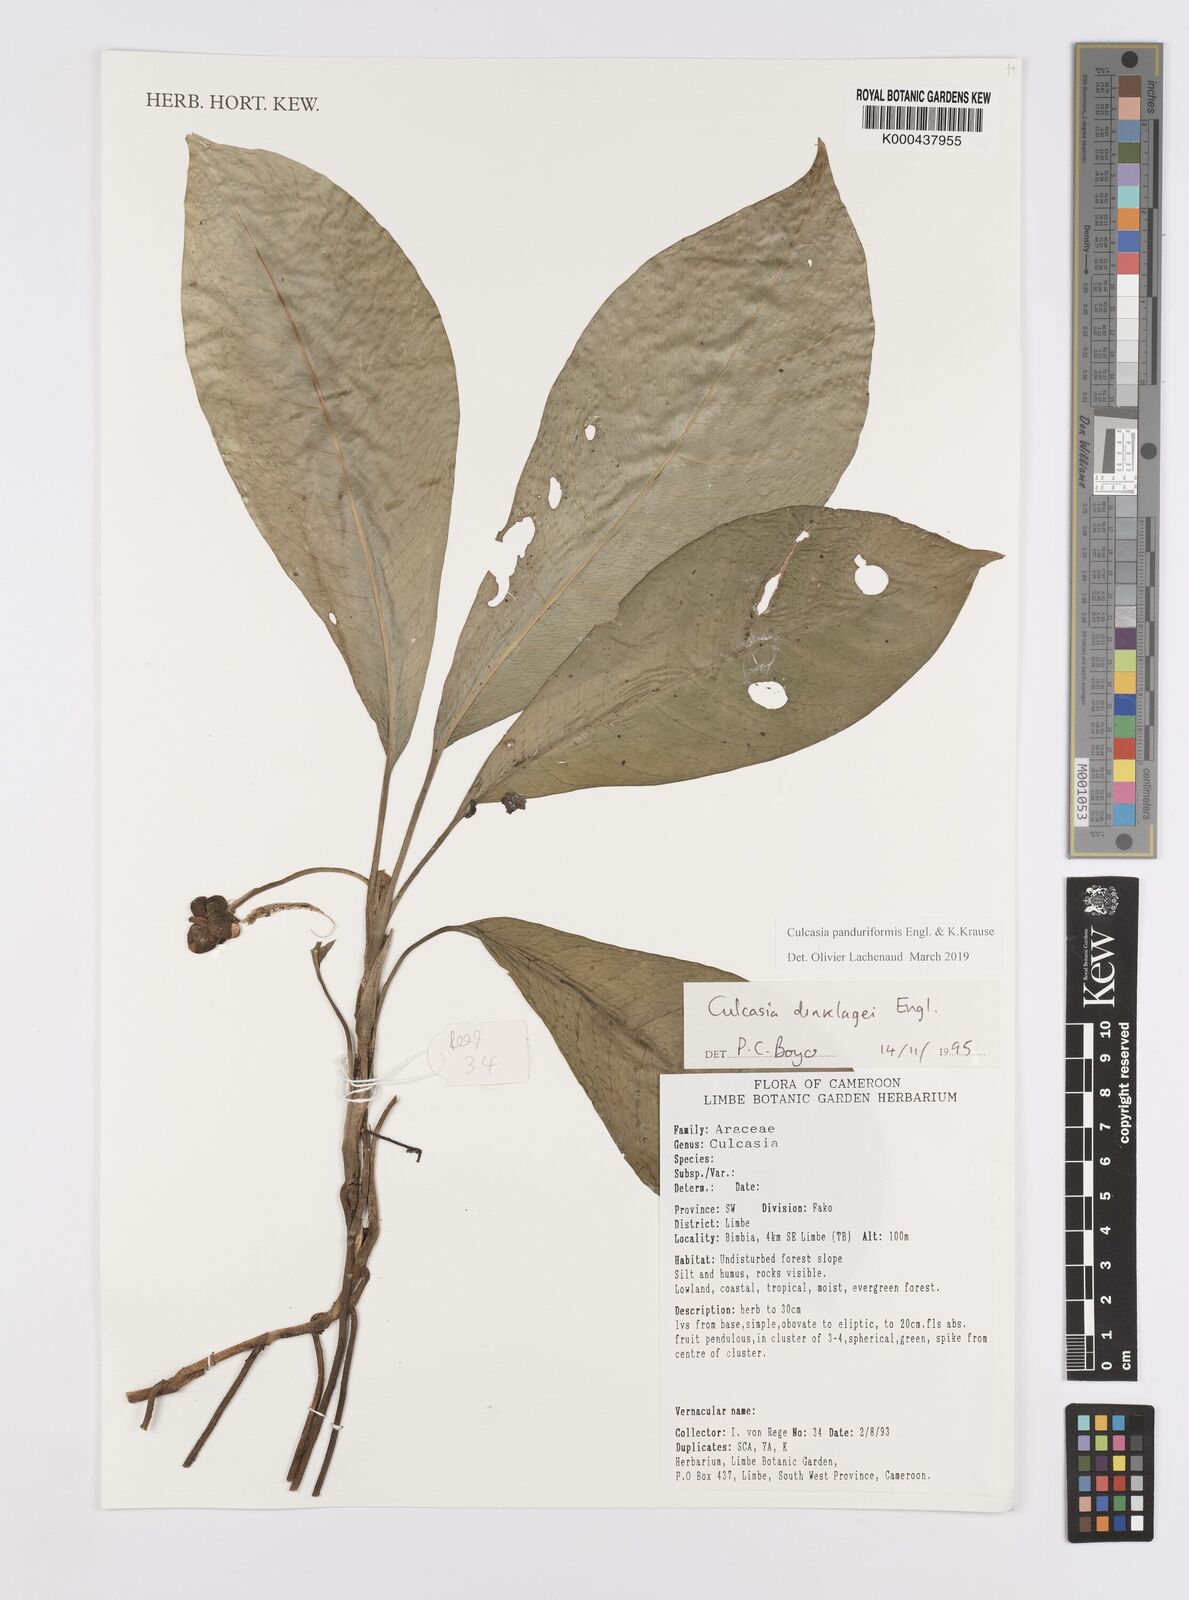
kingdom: Plantae
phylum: Tracheophyta
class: Liliopsida
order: Alismatales
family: Araceae
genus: Culcasia
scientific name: Culcasia panduriformis
